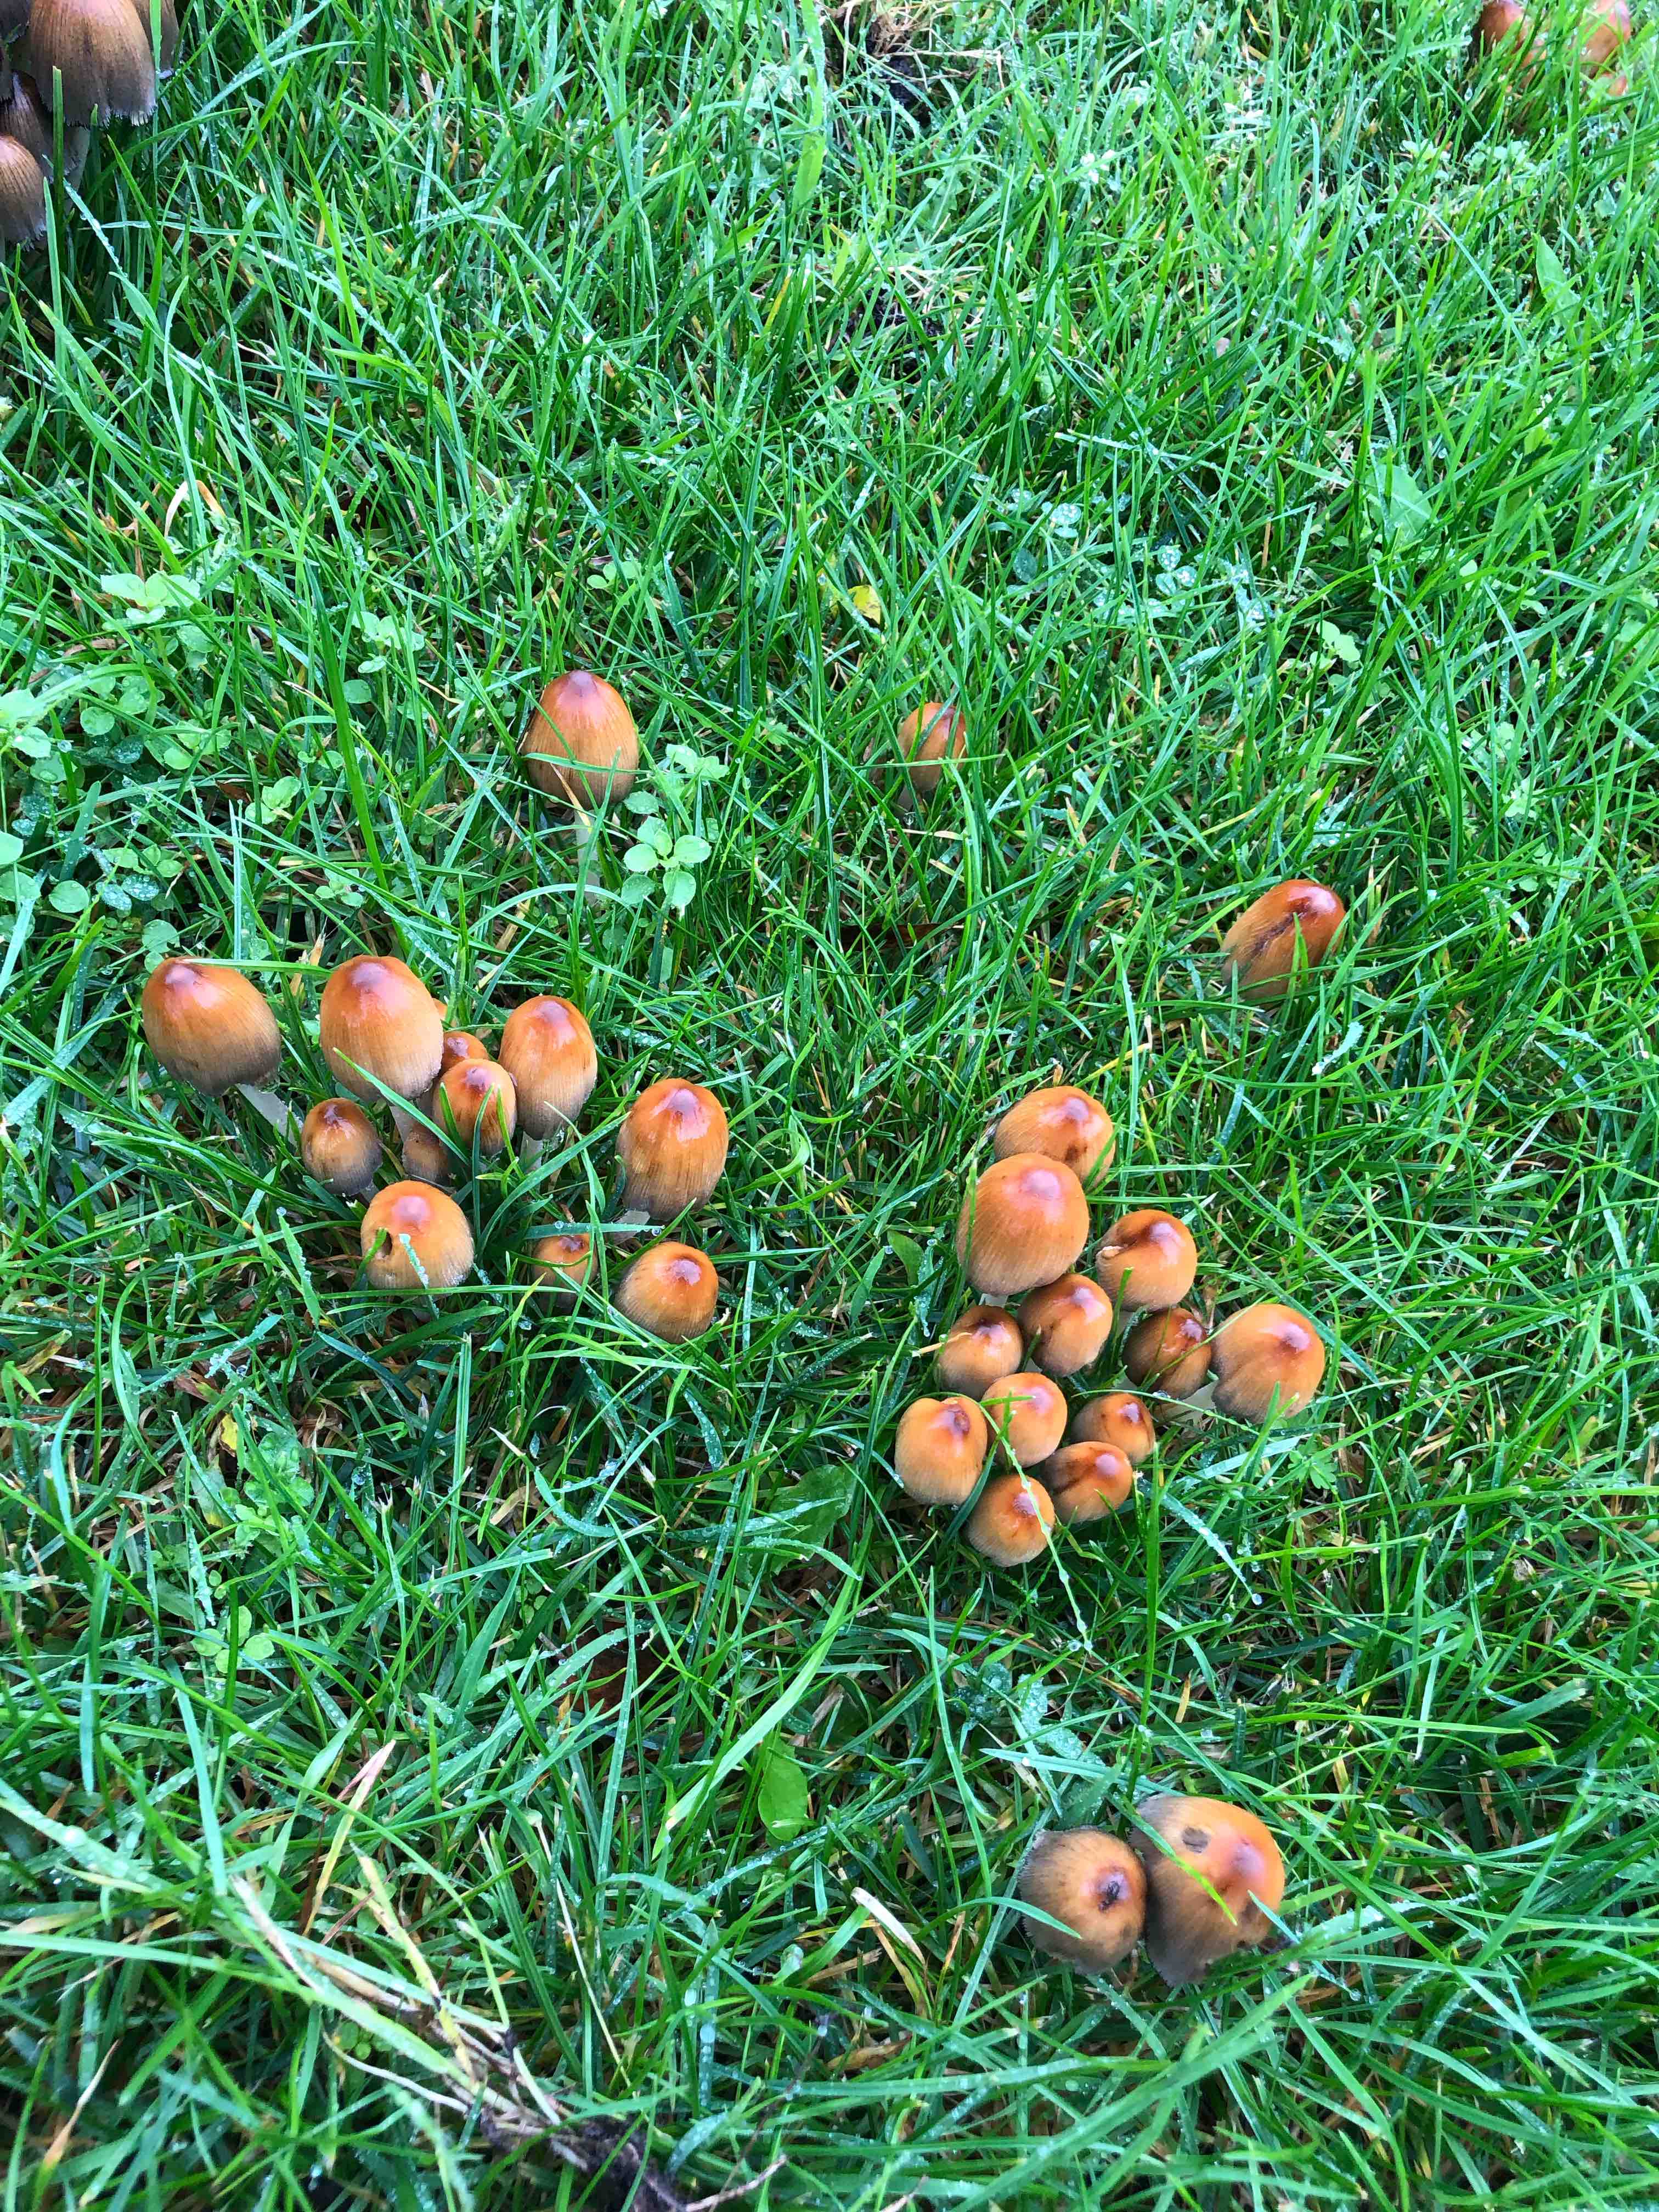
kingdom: Fungi
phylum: Basidiomycota
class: Agaricomycetes
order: Agaricales
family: Psathyrellaceae
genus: Coprinellus
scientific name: Coprinellus
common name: blækhat
